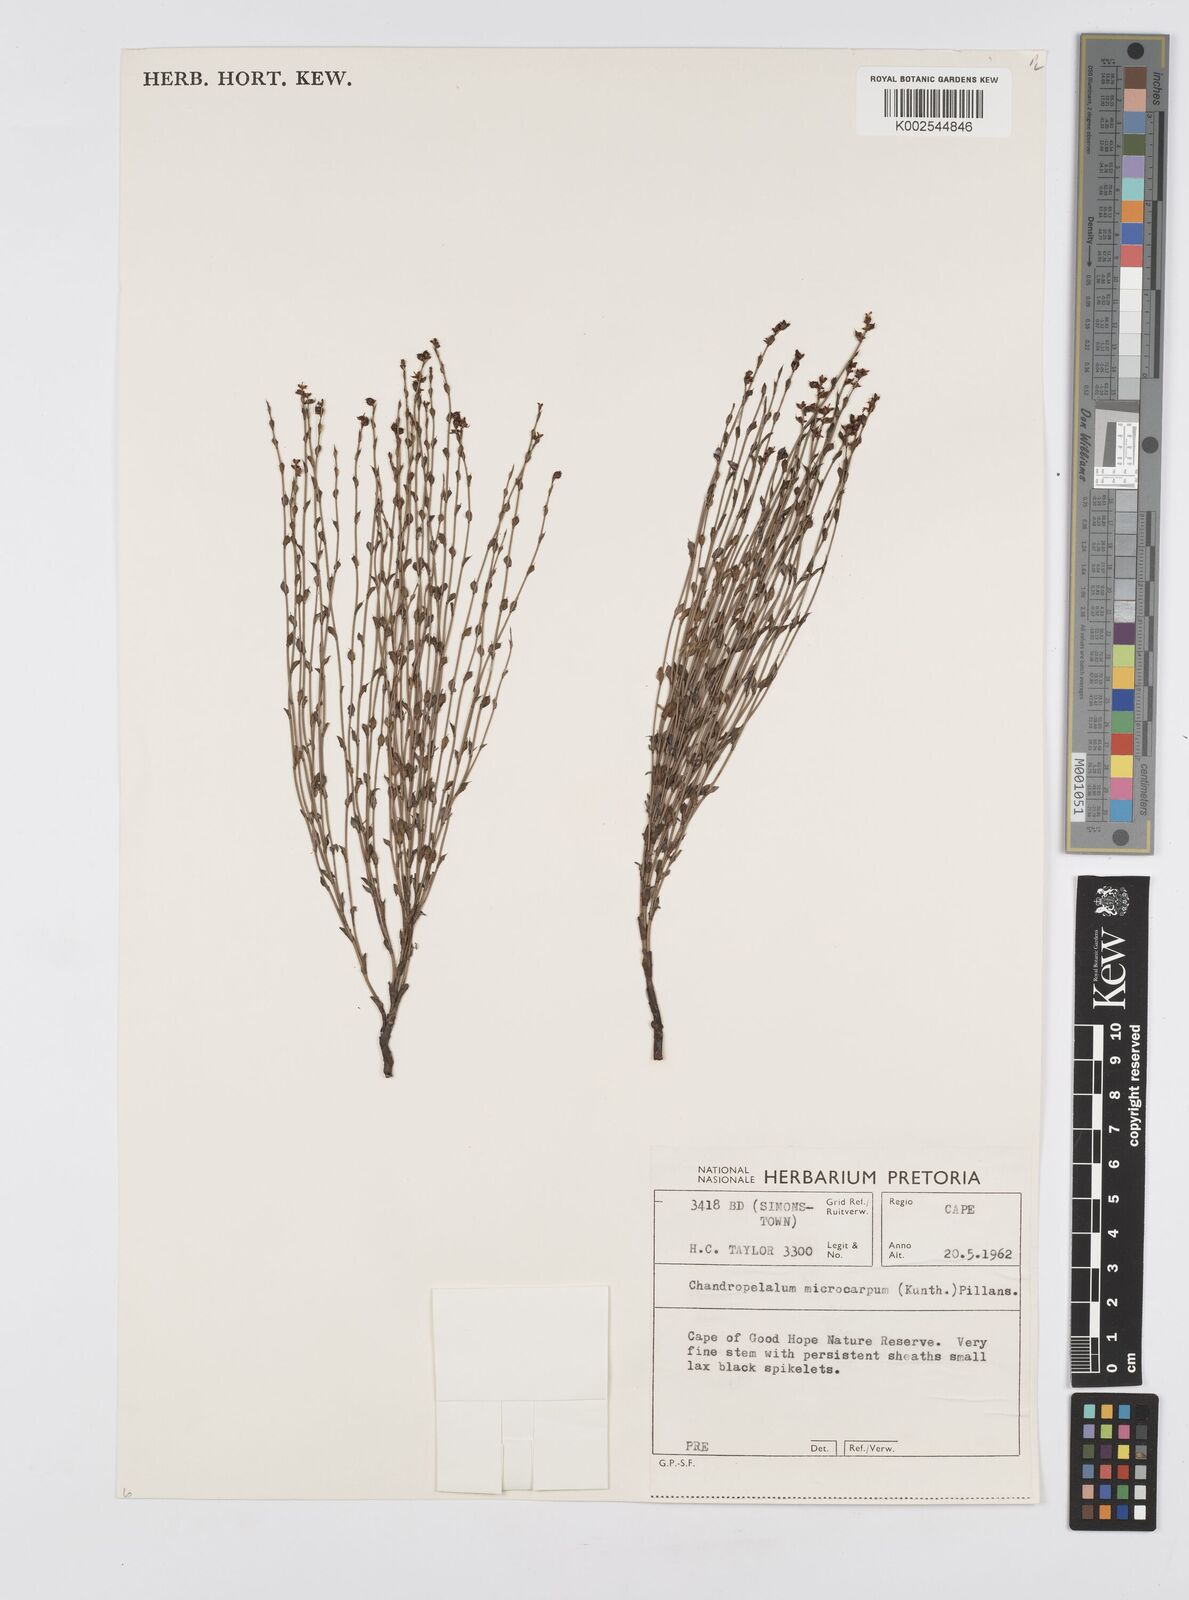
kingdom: Plantae
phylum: Tracheophyta
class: Liliopsida
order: Poales
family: Restionaceae
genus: Elegia
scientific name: Elegia microcarpa
